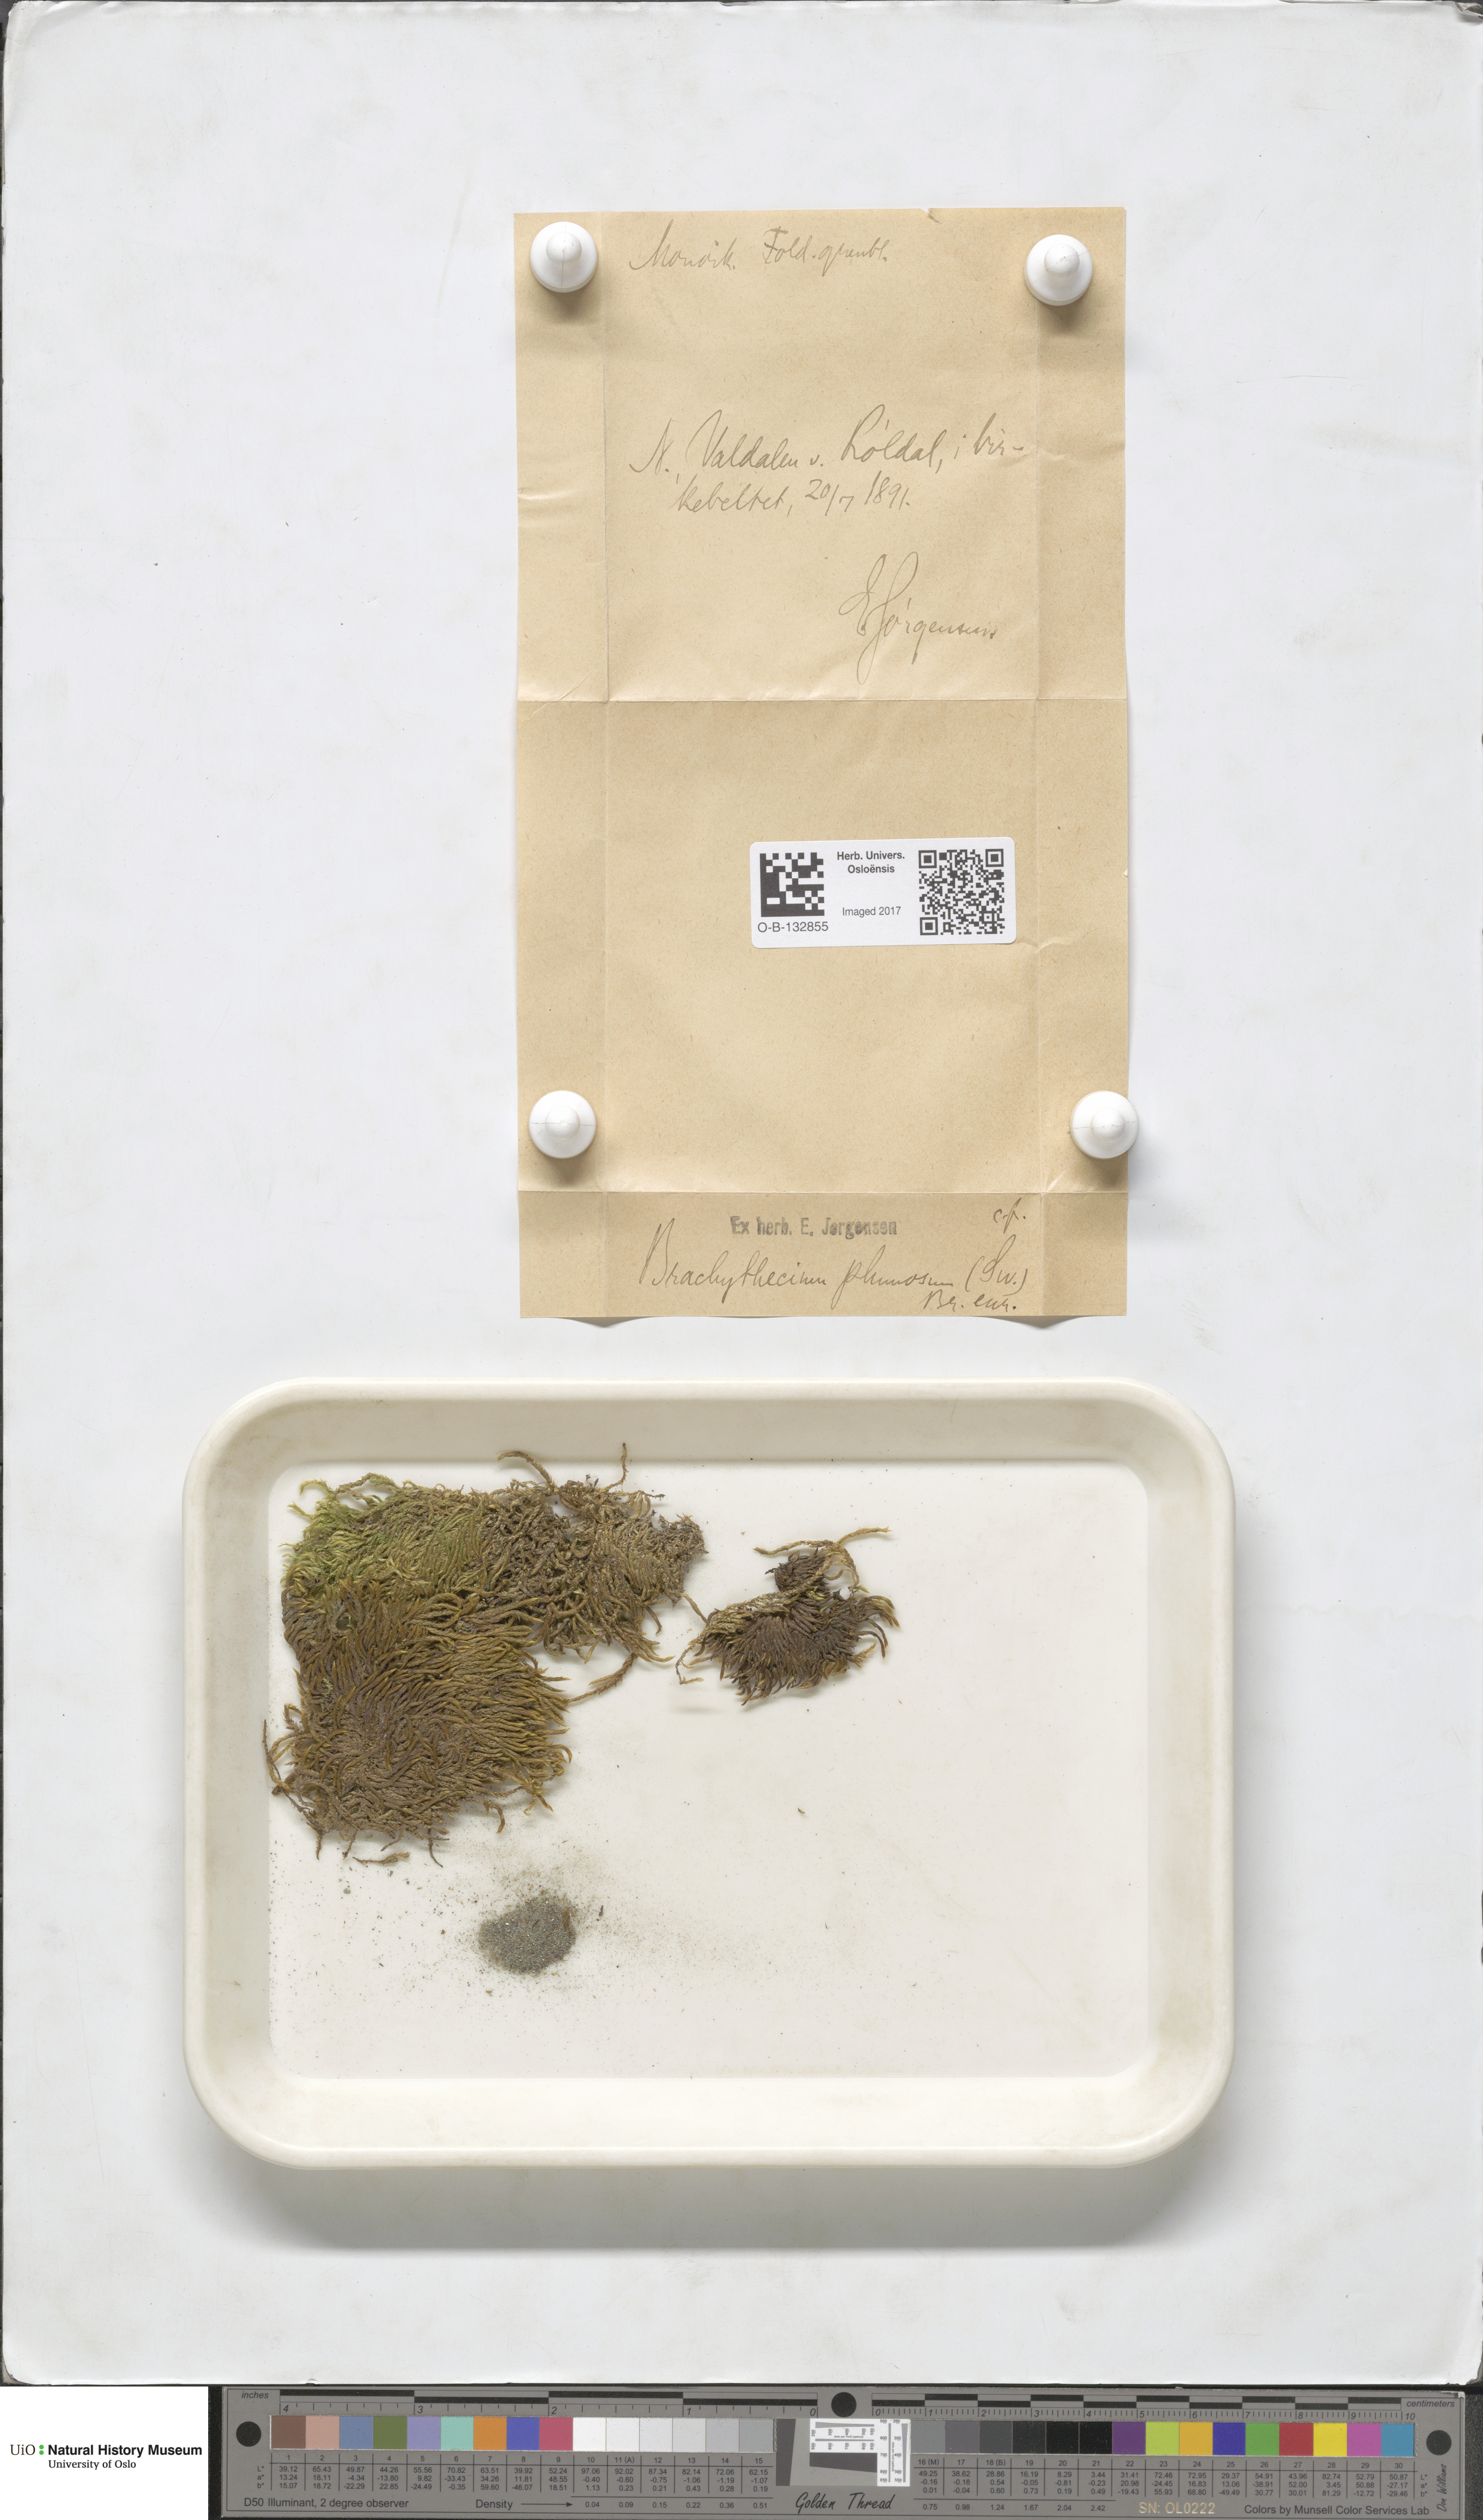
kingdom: Plantae
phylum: Bryophyta
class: Bryopsida
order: Hypnales
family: Brachytheciaceae
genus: Sciuro-hypnum
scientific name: Sciuro-hypnum plumosum
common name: Rusty feather-moss
